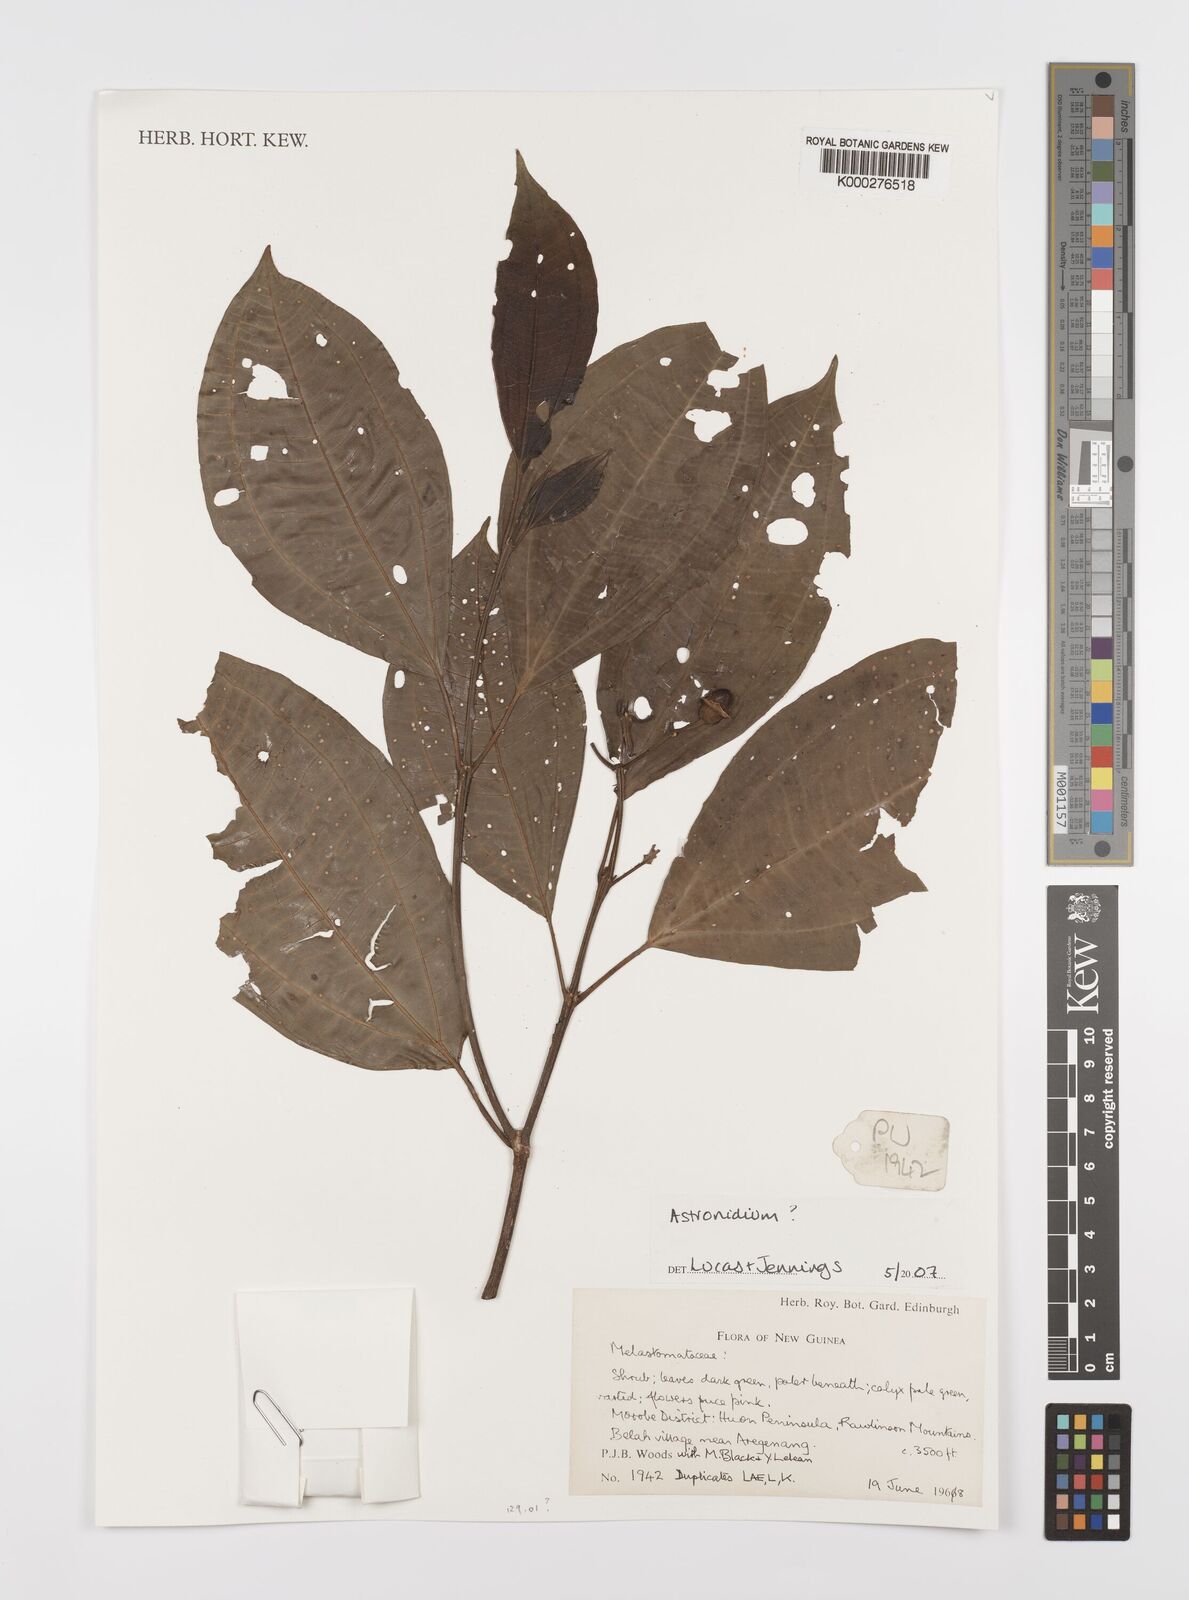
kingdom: Plantae
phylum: Tracheophyta
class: Magnoliopsida
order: Myrtales
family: Melastomataceae
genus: Astronidium
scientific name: Astronidium
